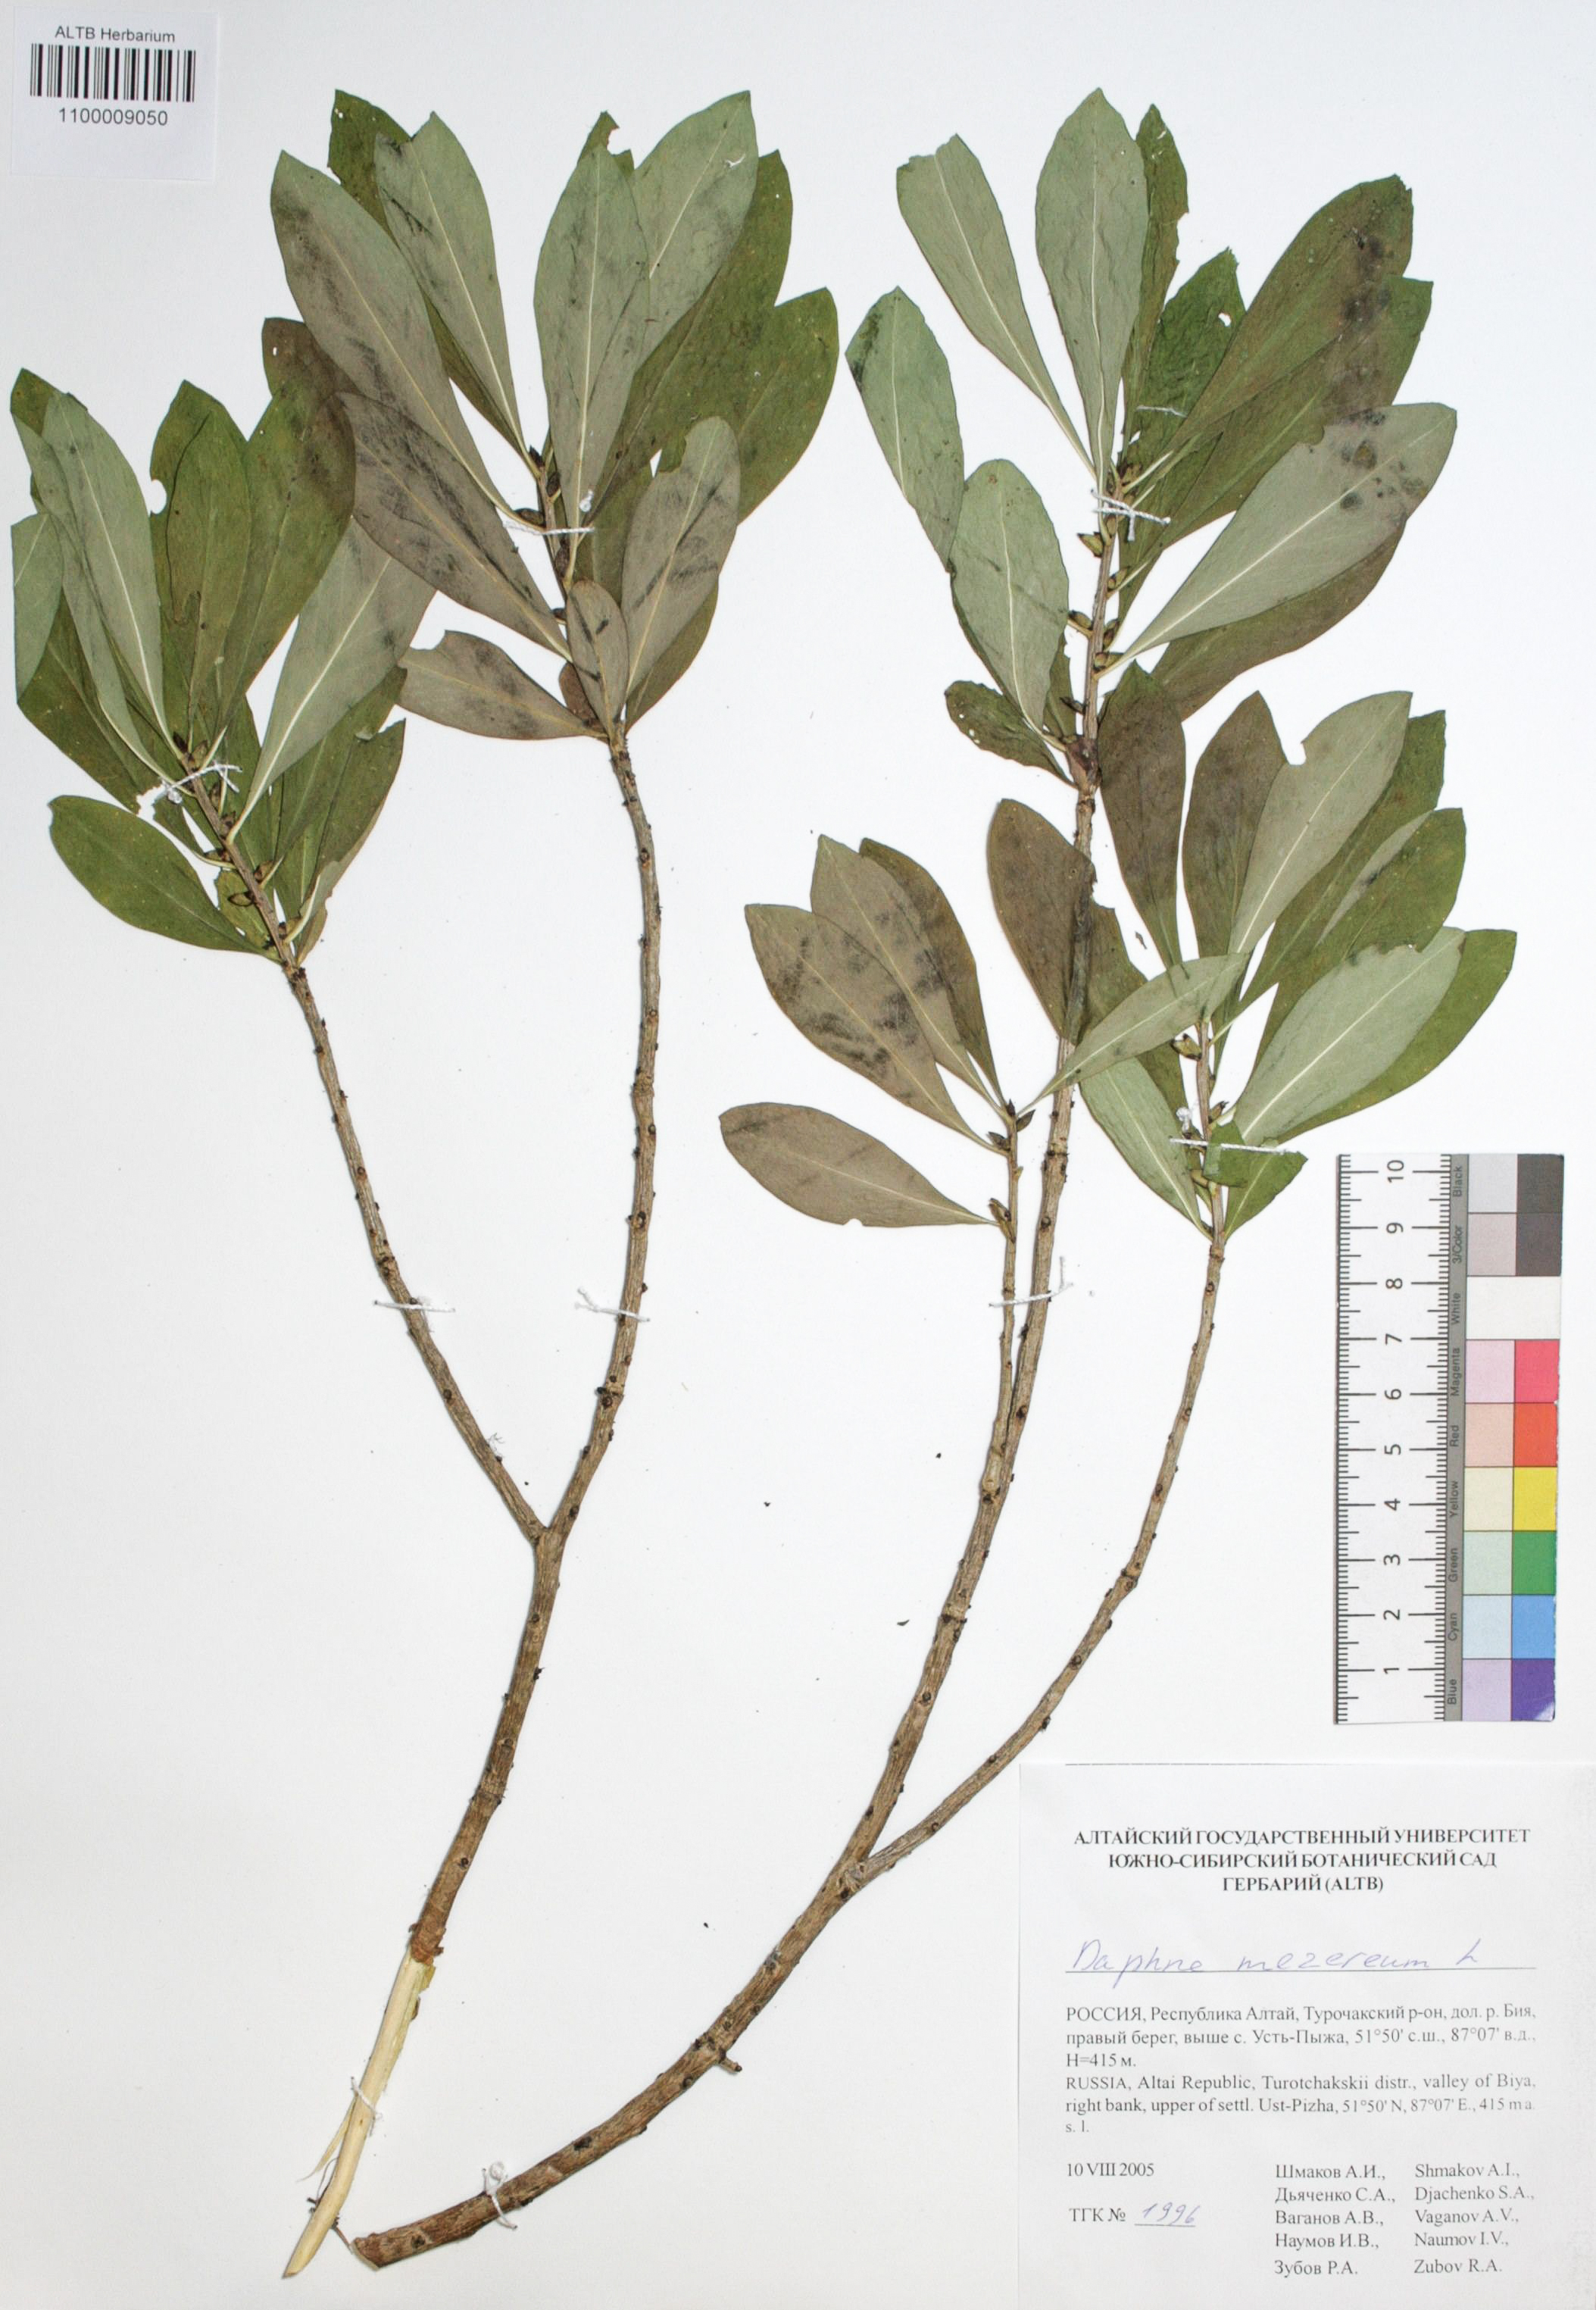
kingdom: Plantae
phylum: Tracheophyta
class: Magnoliopsida
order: Malvales
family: Thymelaeaceae
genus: Daphne
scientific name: Daphne mezereum
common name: Mezereon
